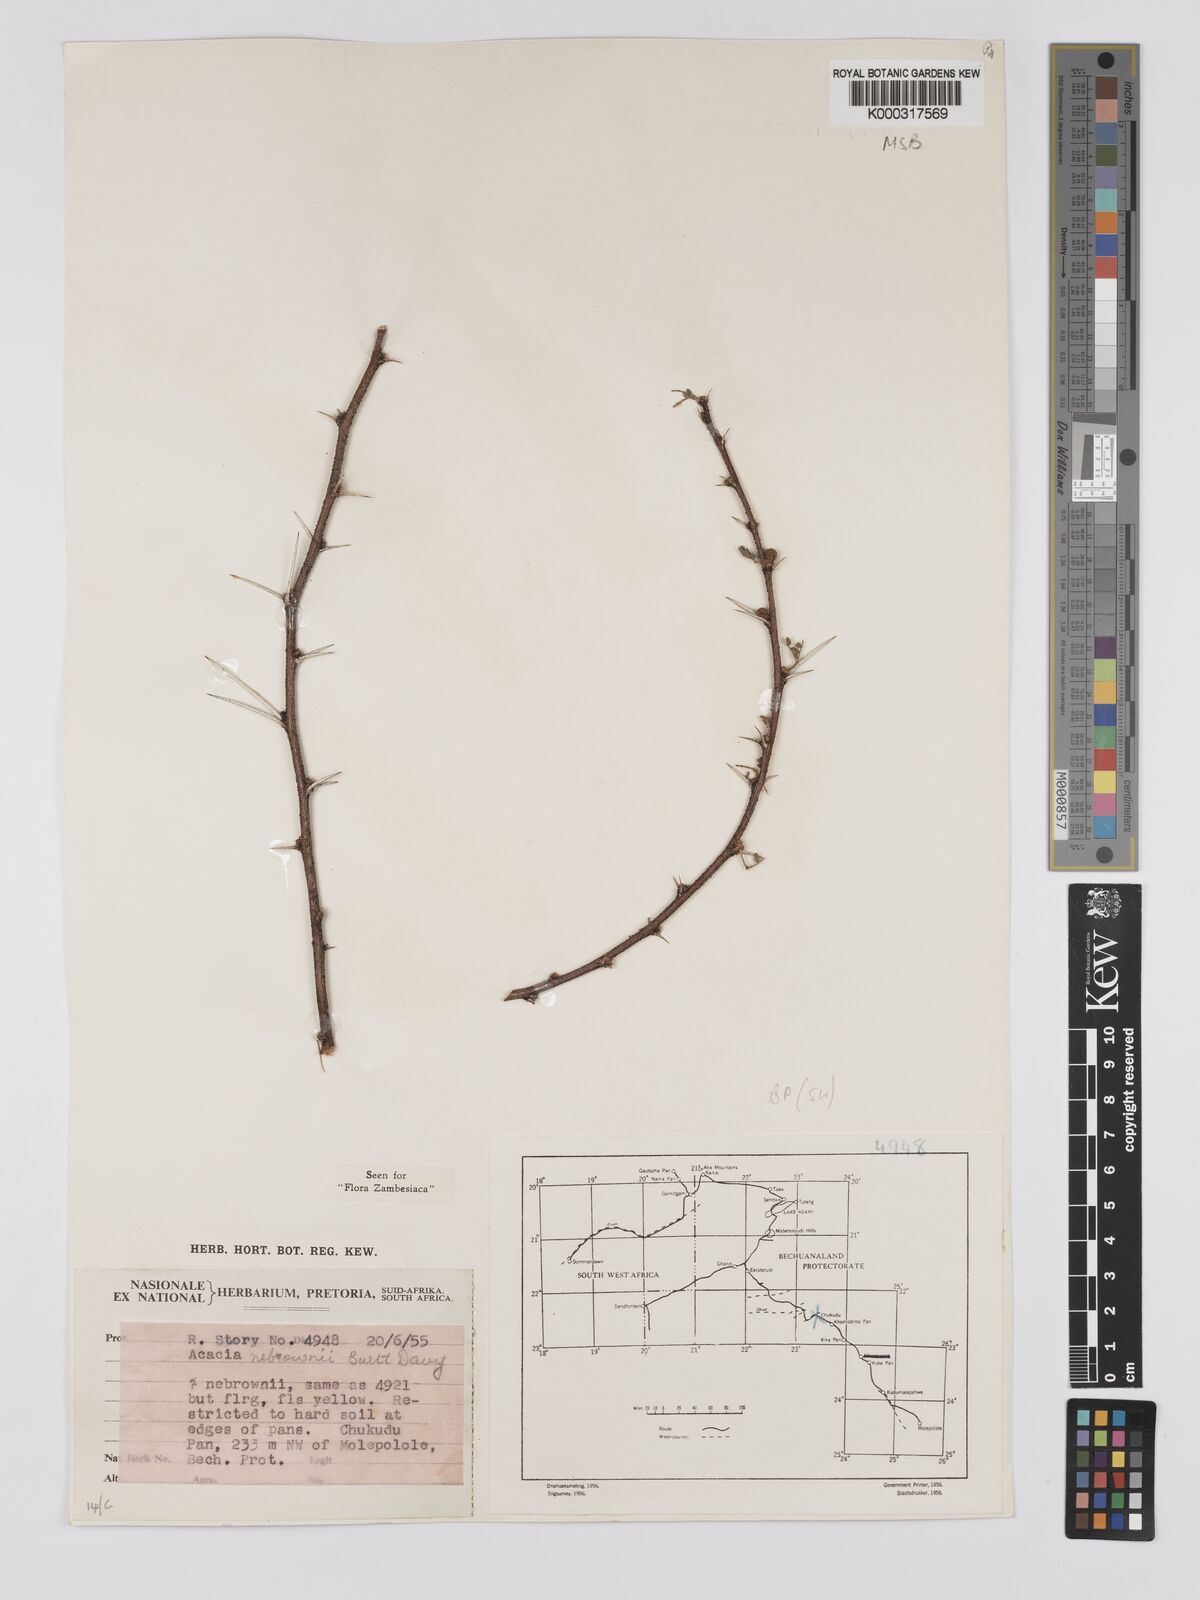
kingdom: Plantae
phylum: Tracheophyta
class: Magnoliopsida
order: Fabales
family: Fabaceae
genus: Vachellia
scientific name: Vachellia nebrownii
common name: Water acacia
